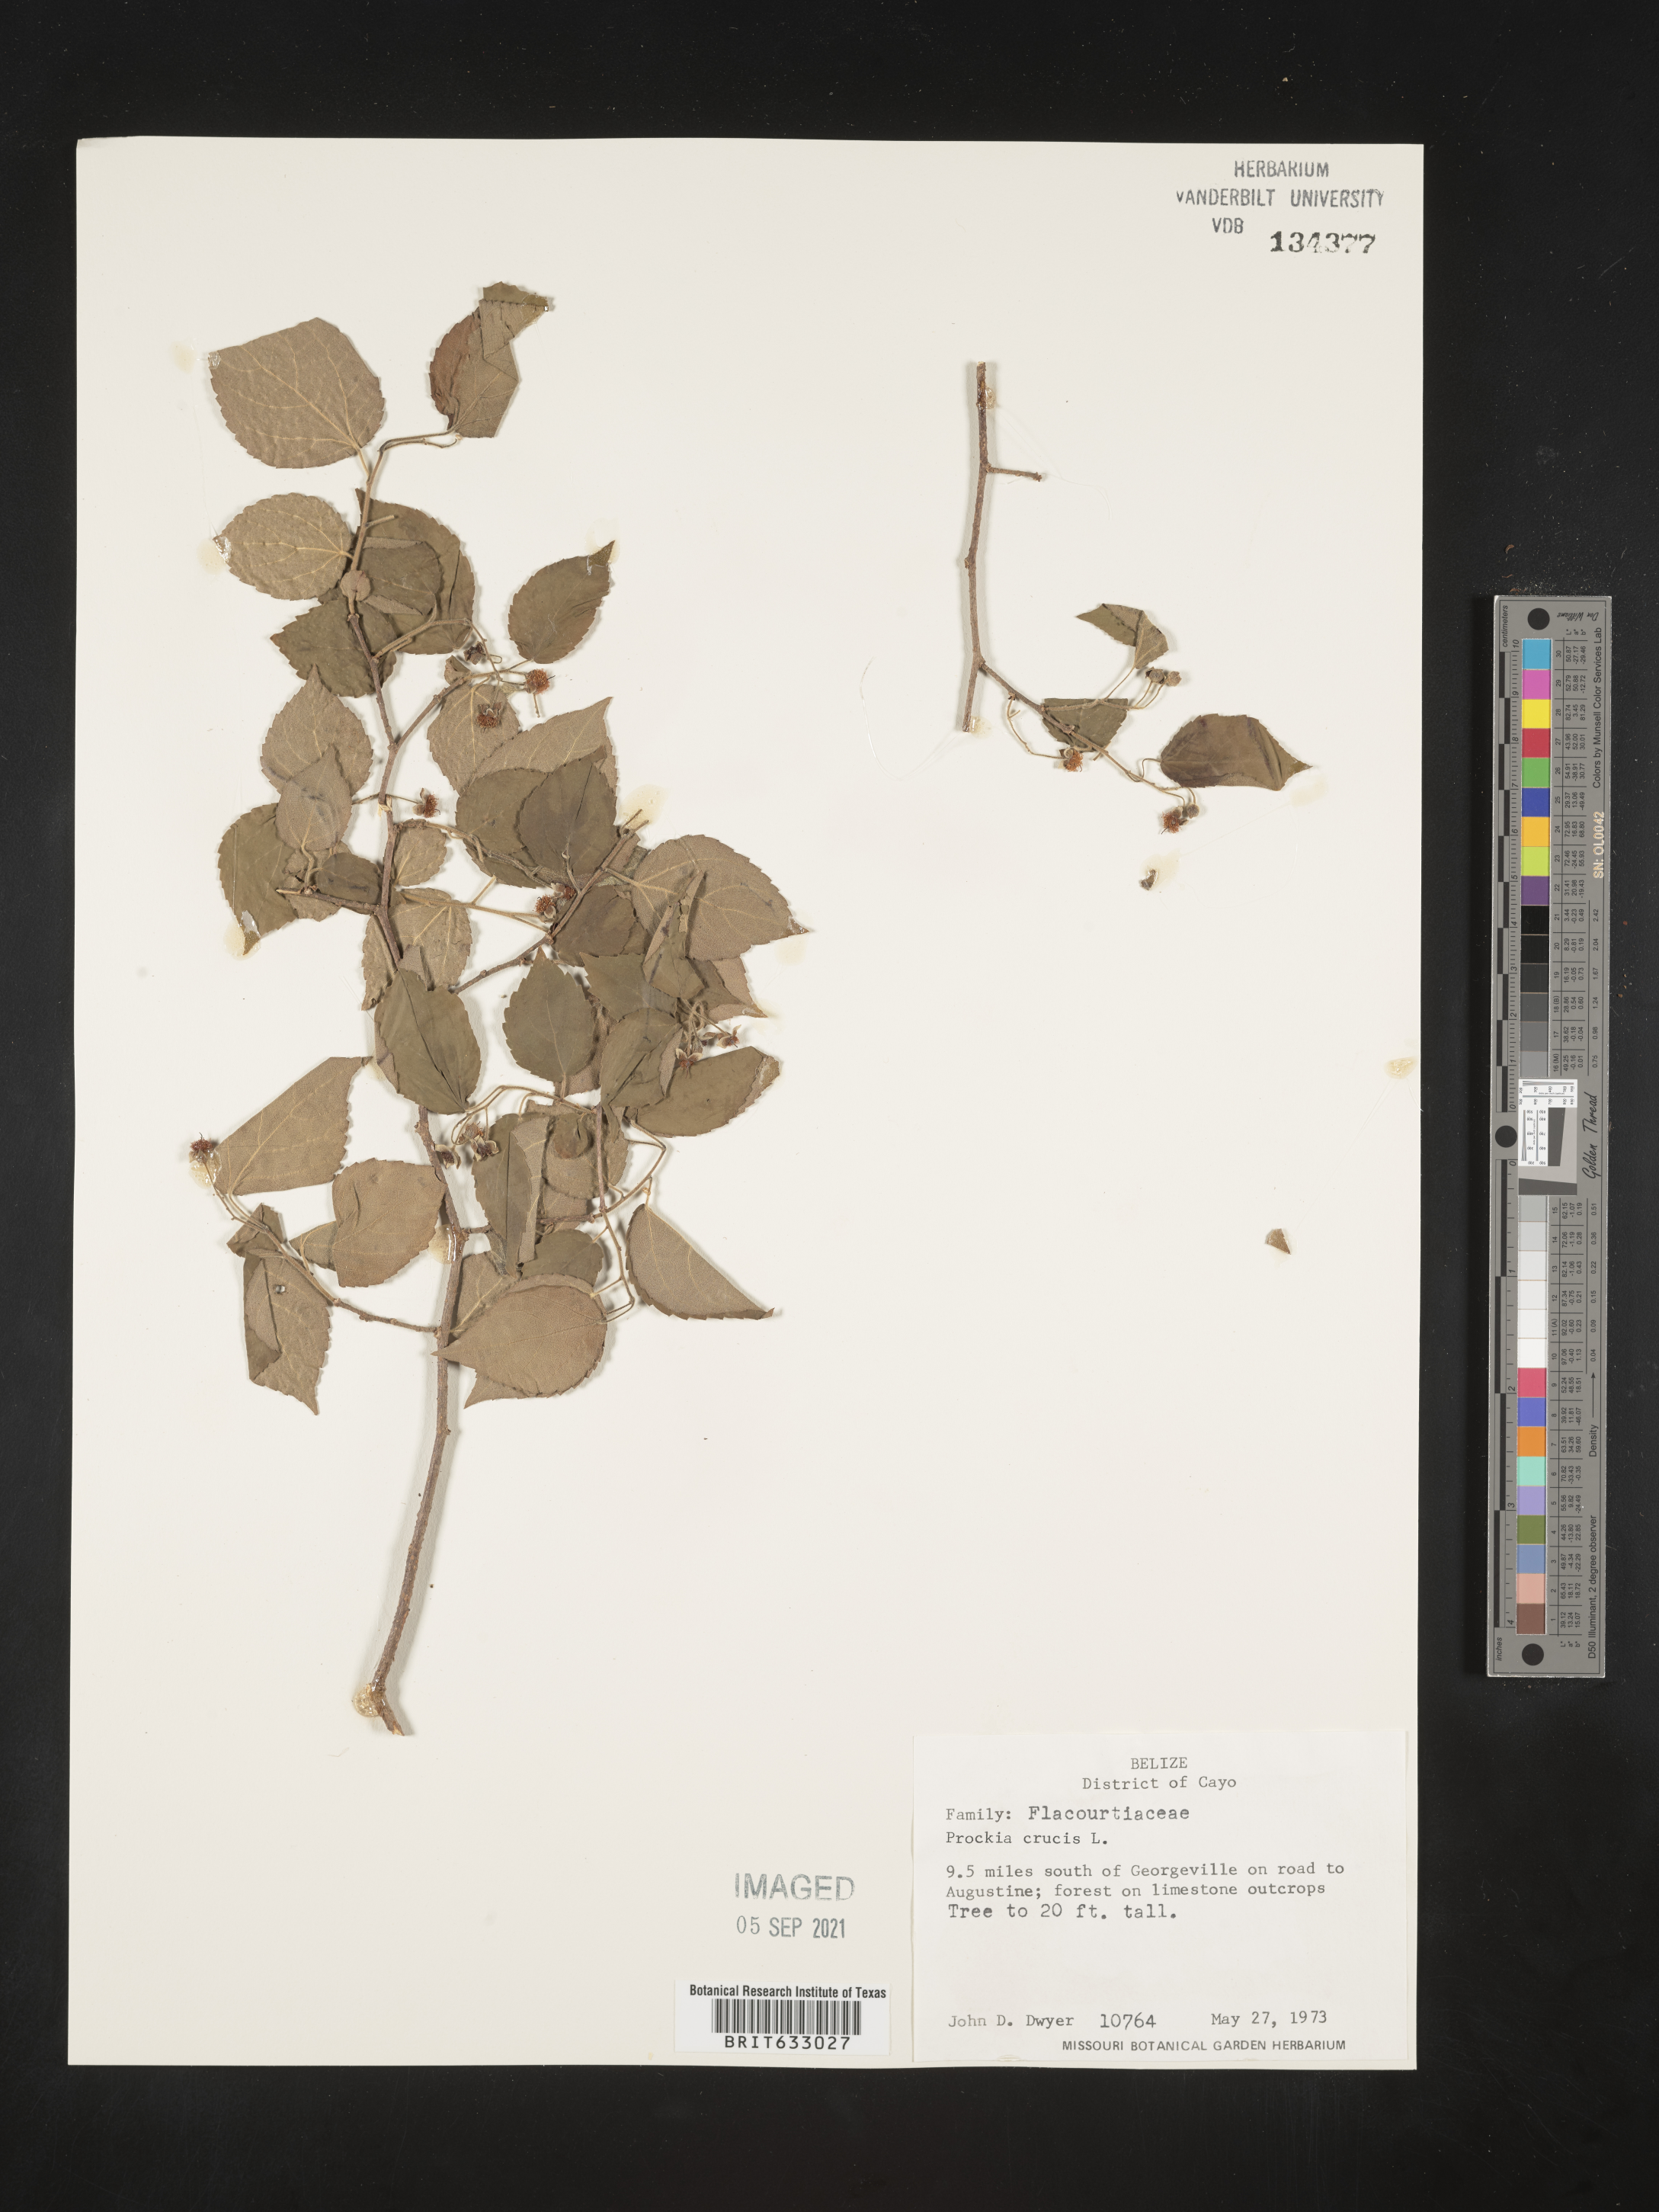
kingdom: Plantae
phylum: Tracheophyta
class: Magnoliopsida
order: Malpighiales
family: Salicaceae
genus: Prockia
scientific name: Prockia
